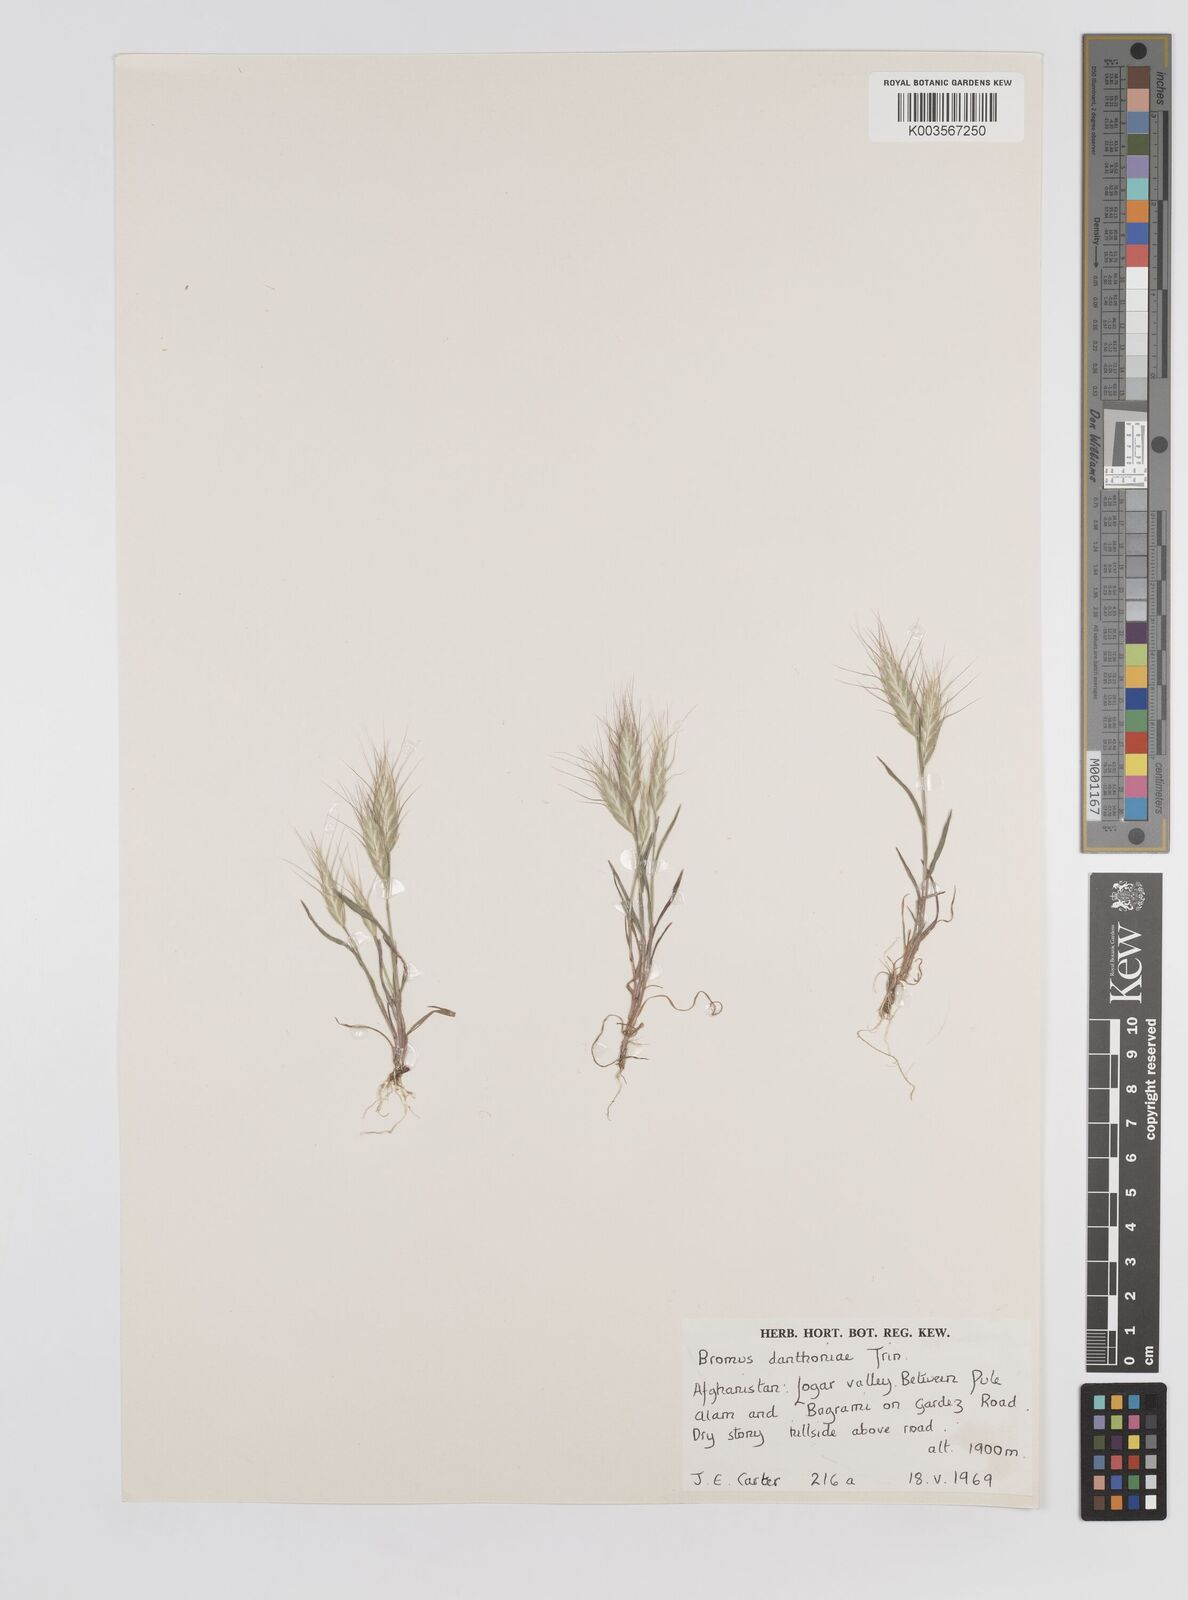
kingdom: Plantae
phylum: Tracheophyta
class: Liliopsida
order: Poales
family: Poaceae
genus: Bromus
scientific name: Bromus danthoniae
